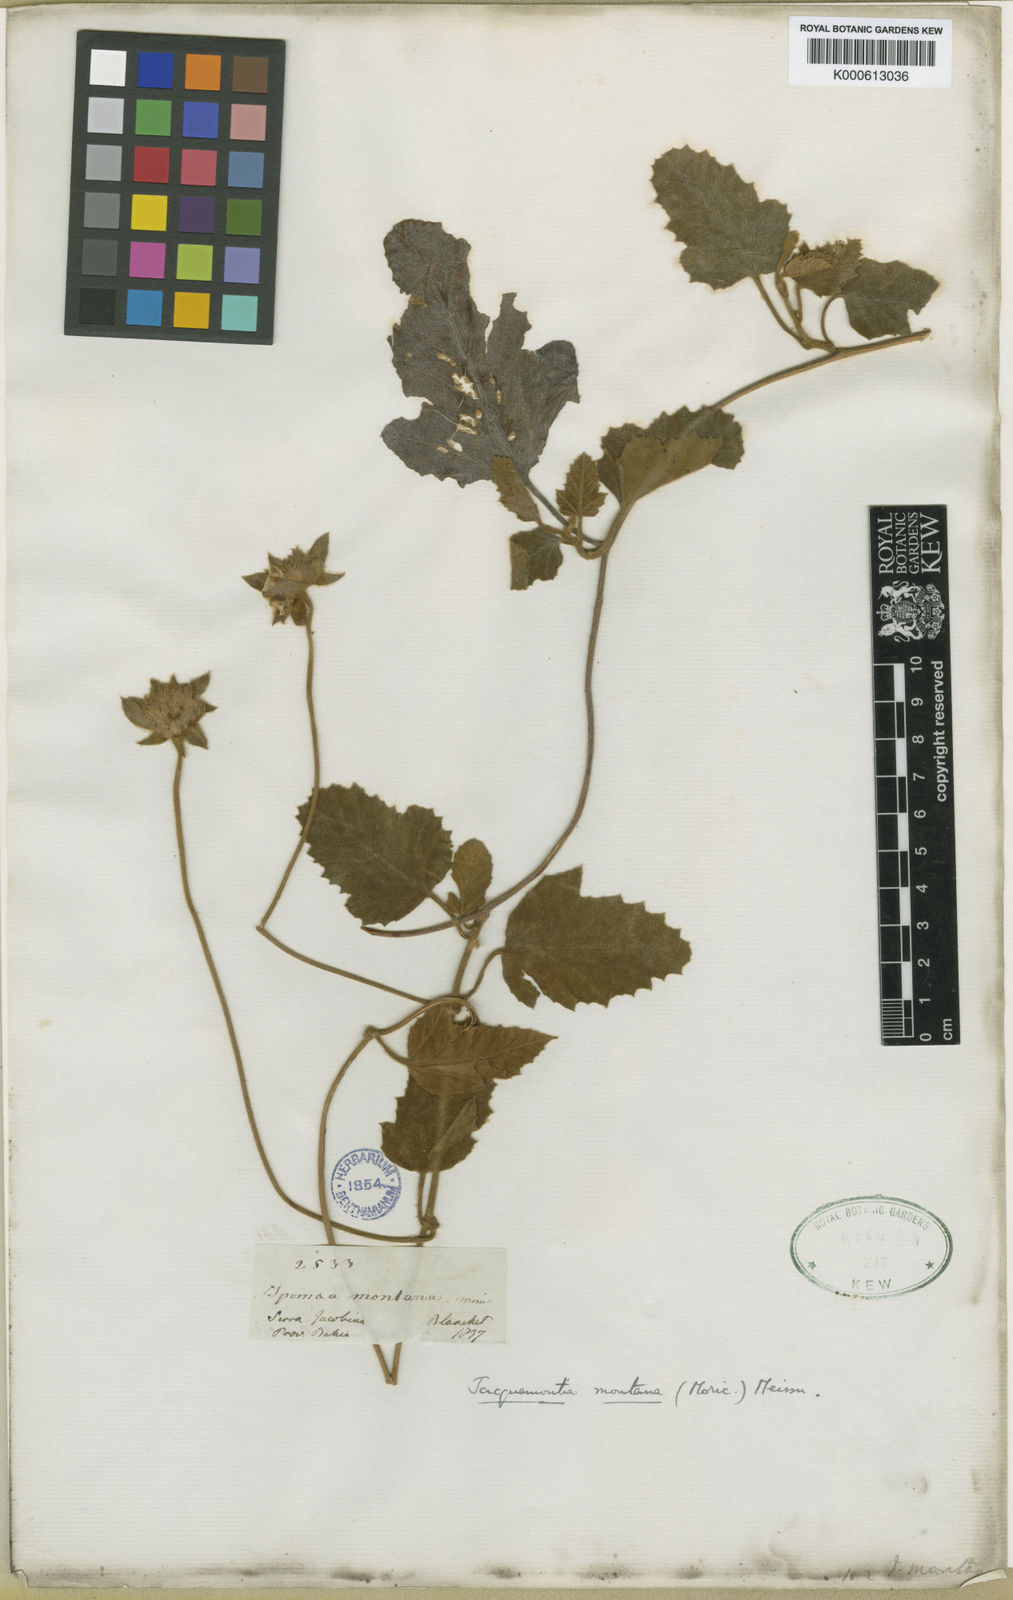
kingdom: Plantae
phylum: Tracheophyta
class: Magnoliopsida
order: Solanales
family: Convolvulaceae
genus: Daustinia
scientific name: Daustinia montana
